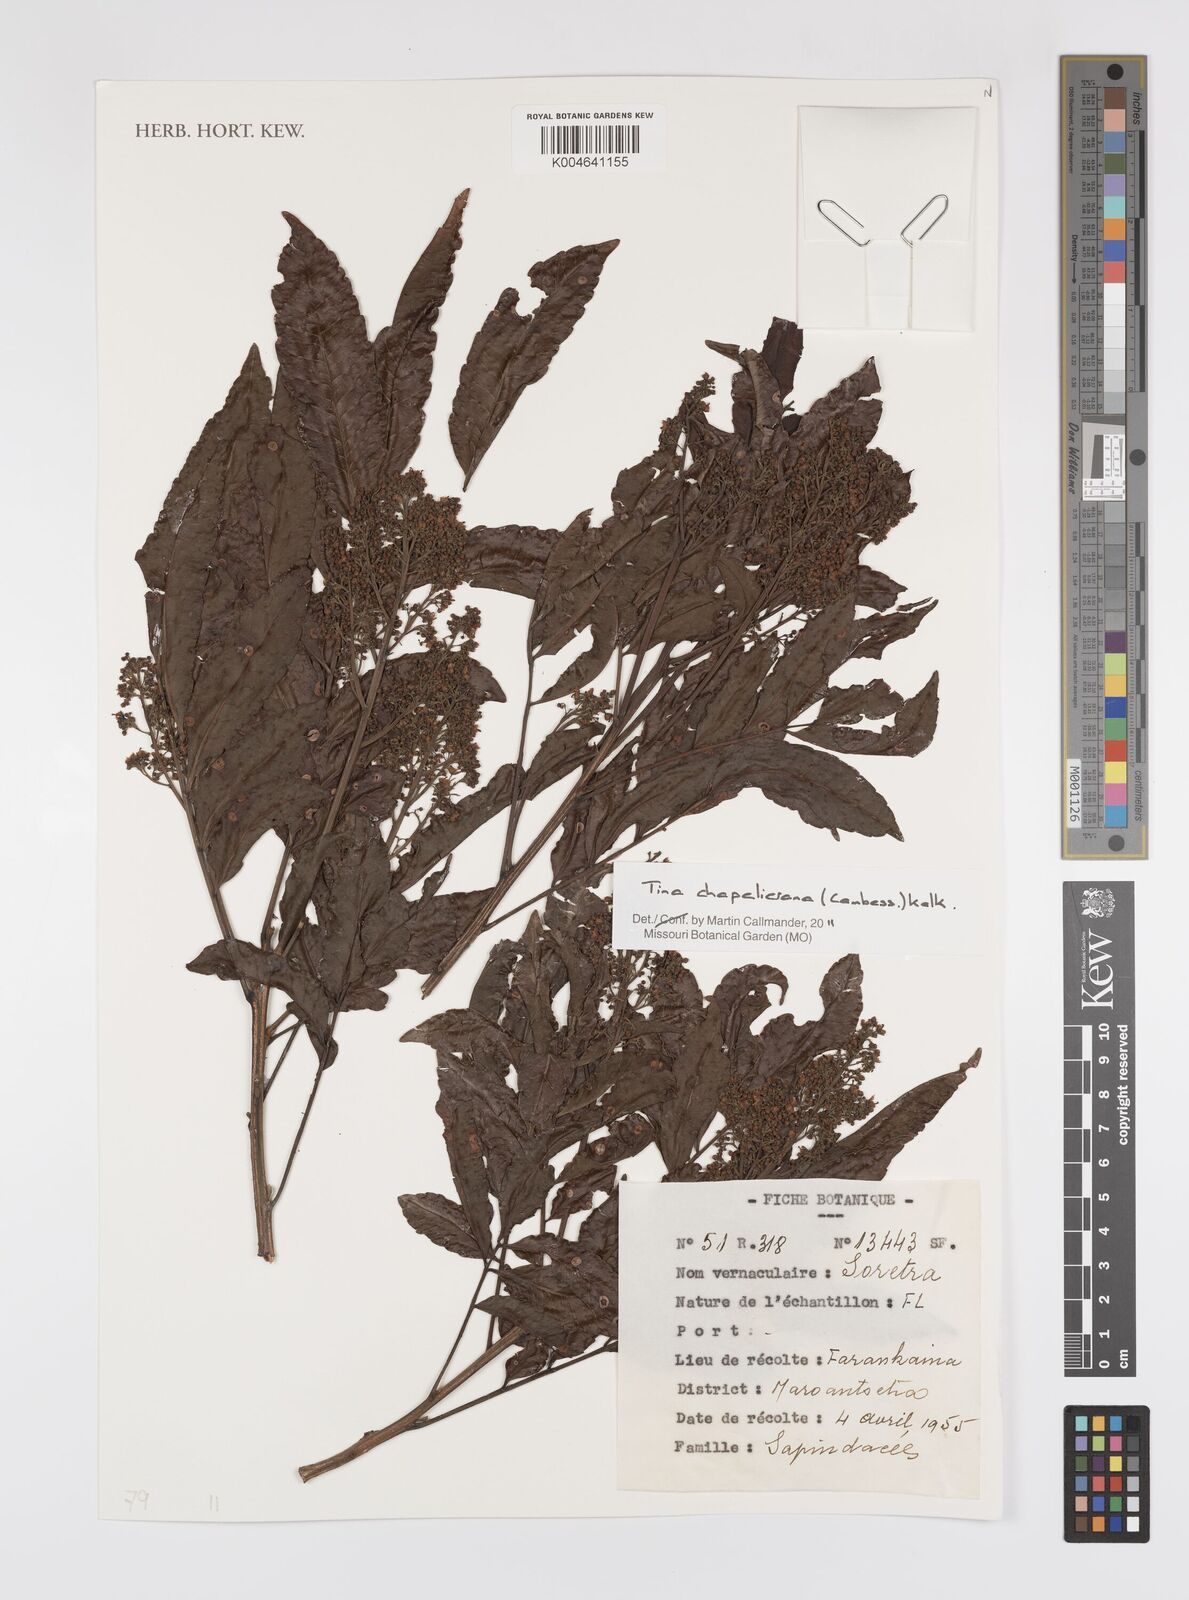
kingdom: Plantae
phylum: Tracheophyta
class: Magnoliopsida
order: Sapindales
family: Sapindaceae
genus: Tina
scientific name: Tina chapelieriana
